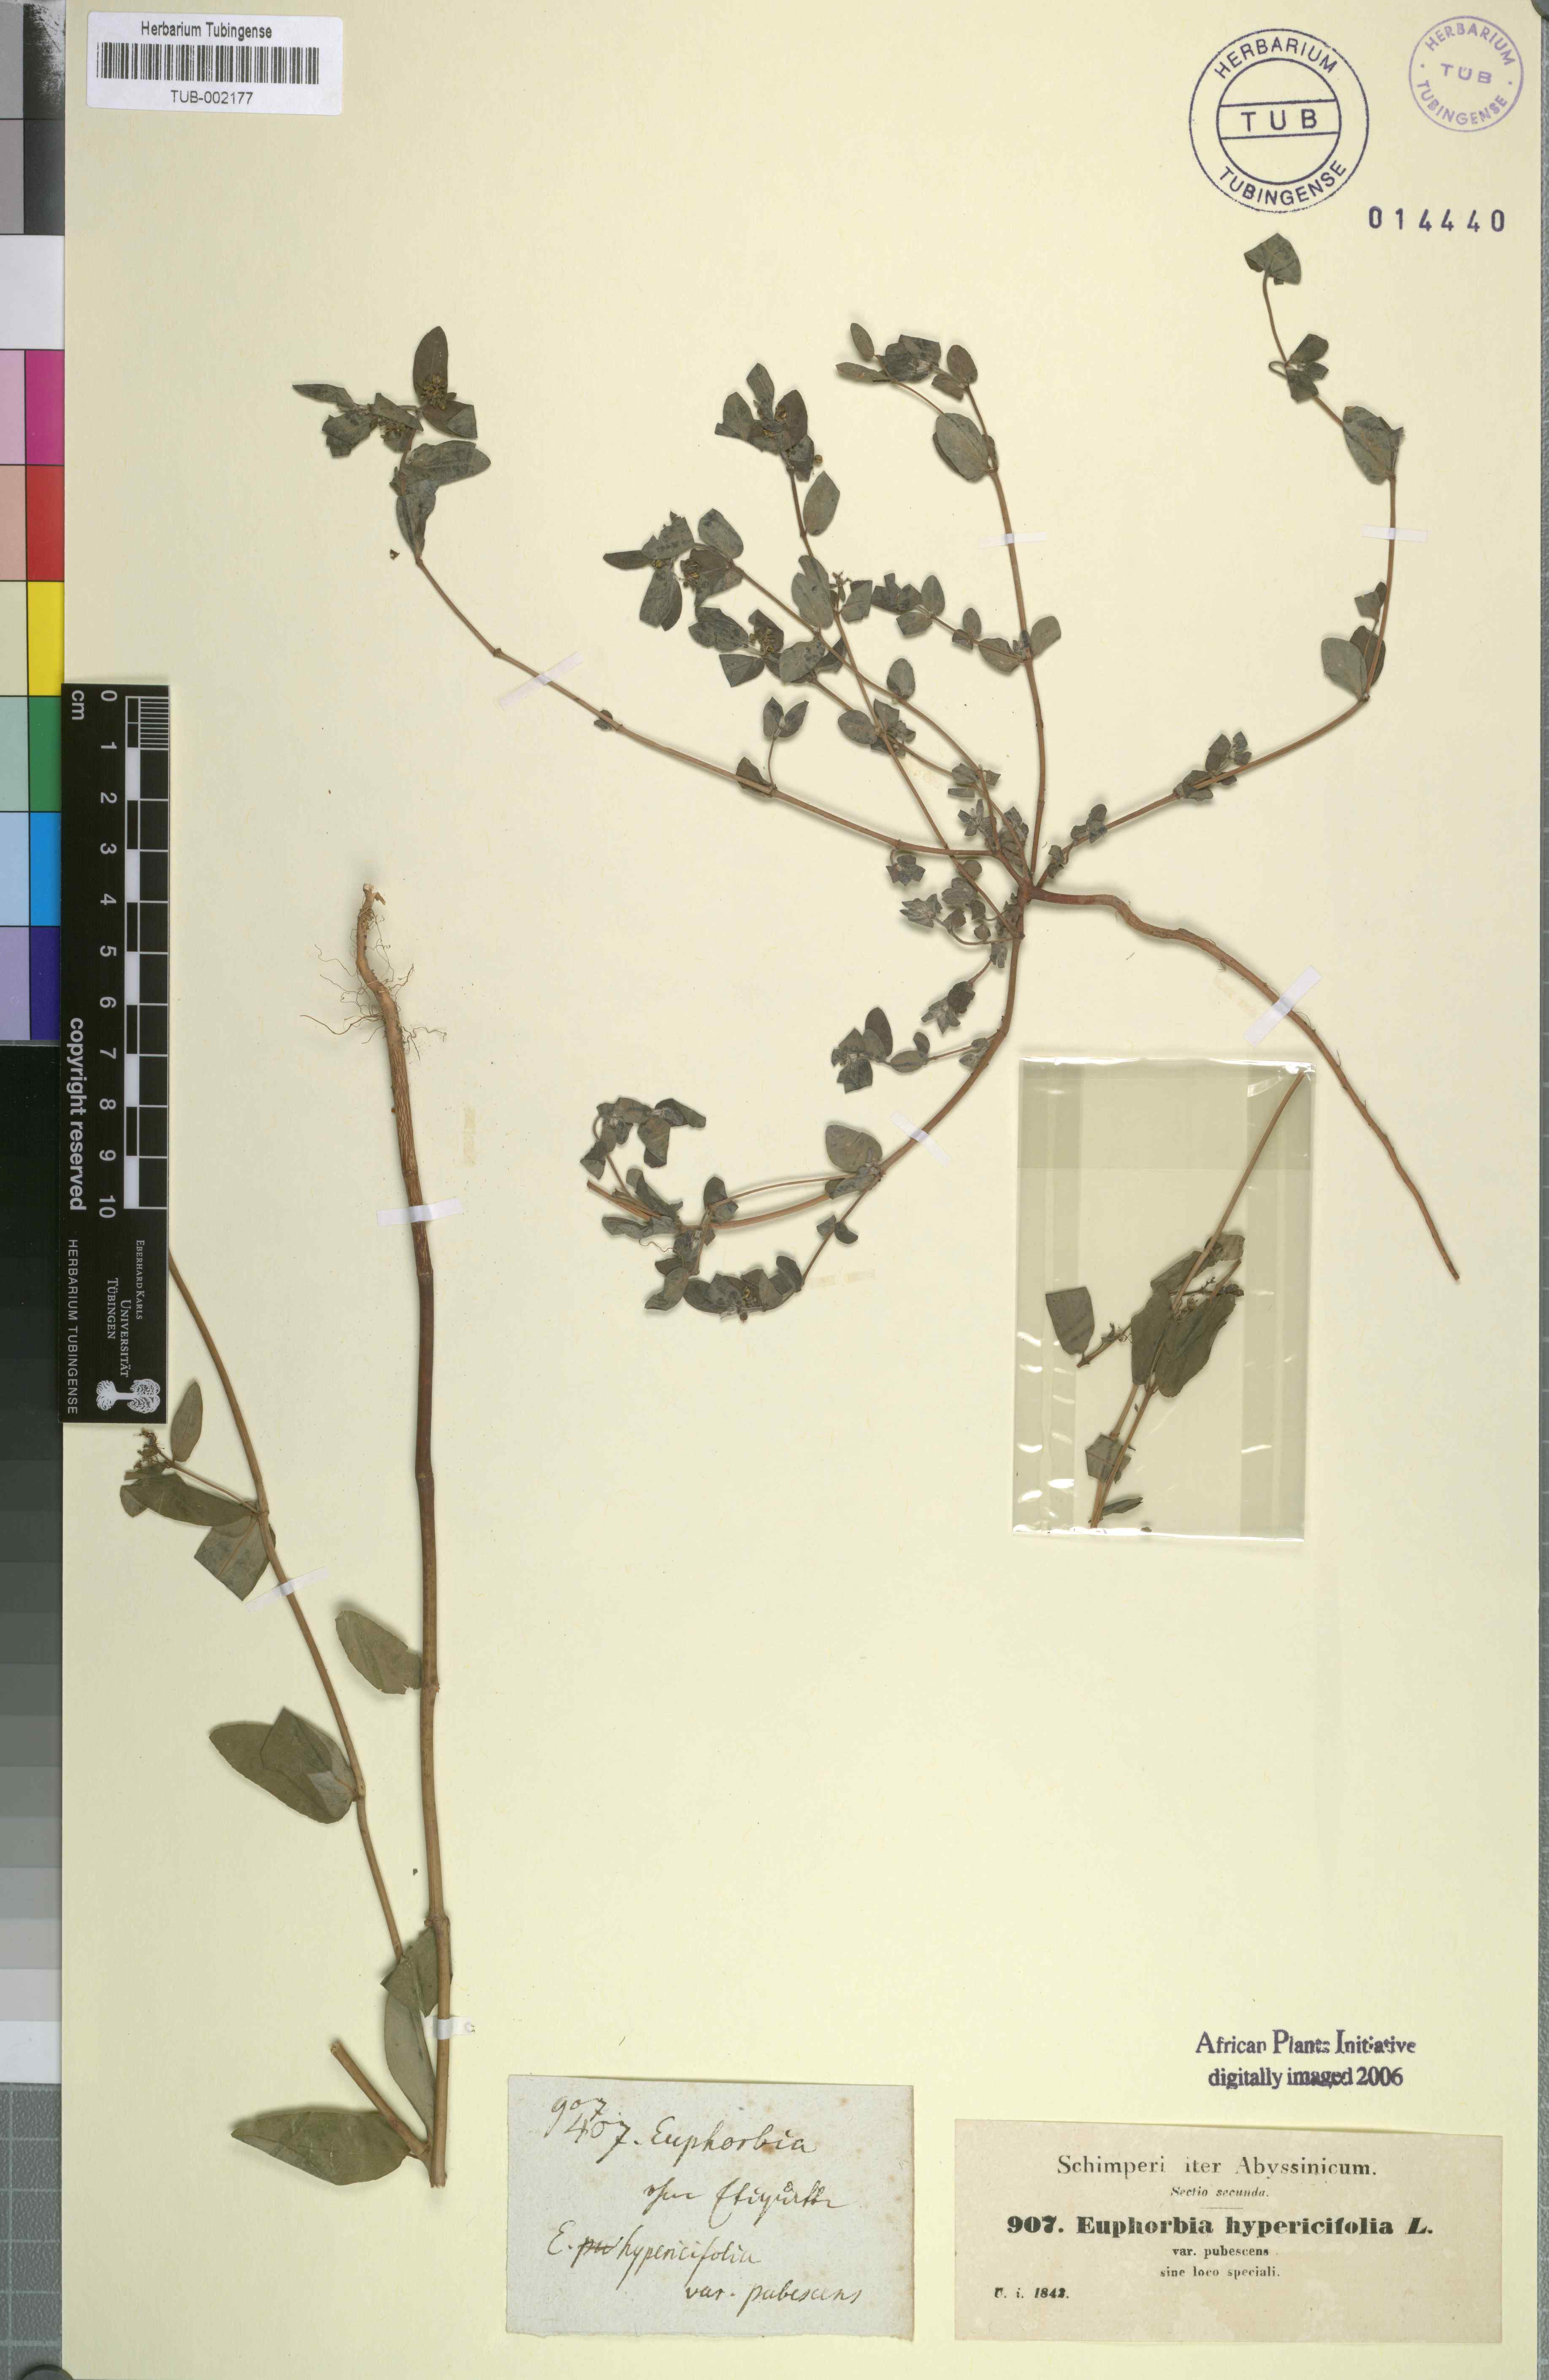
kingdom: Plantae
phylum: Tracheophyta
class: Magnoliopsida
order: Malpighiales
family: Euphorbiaceae
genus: Euphorbia
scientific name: Euphorbia indica
